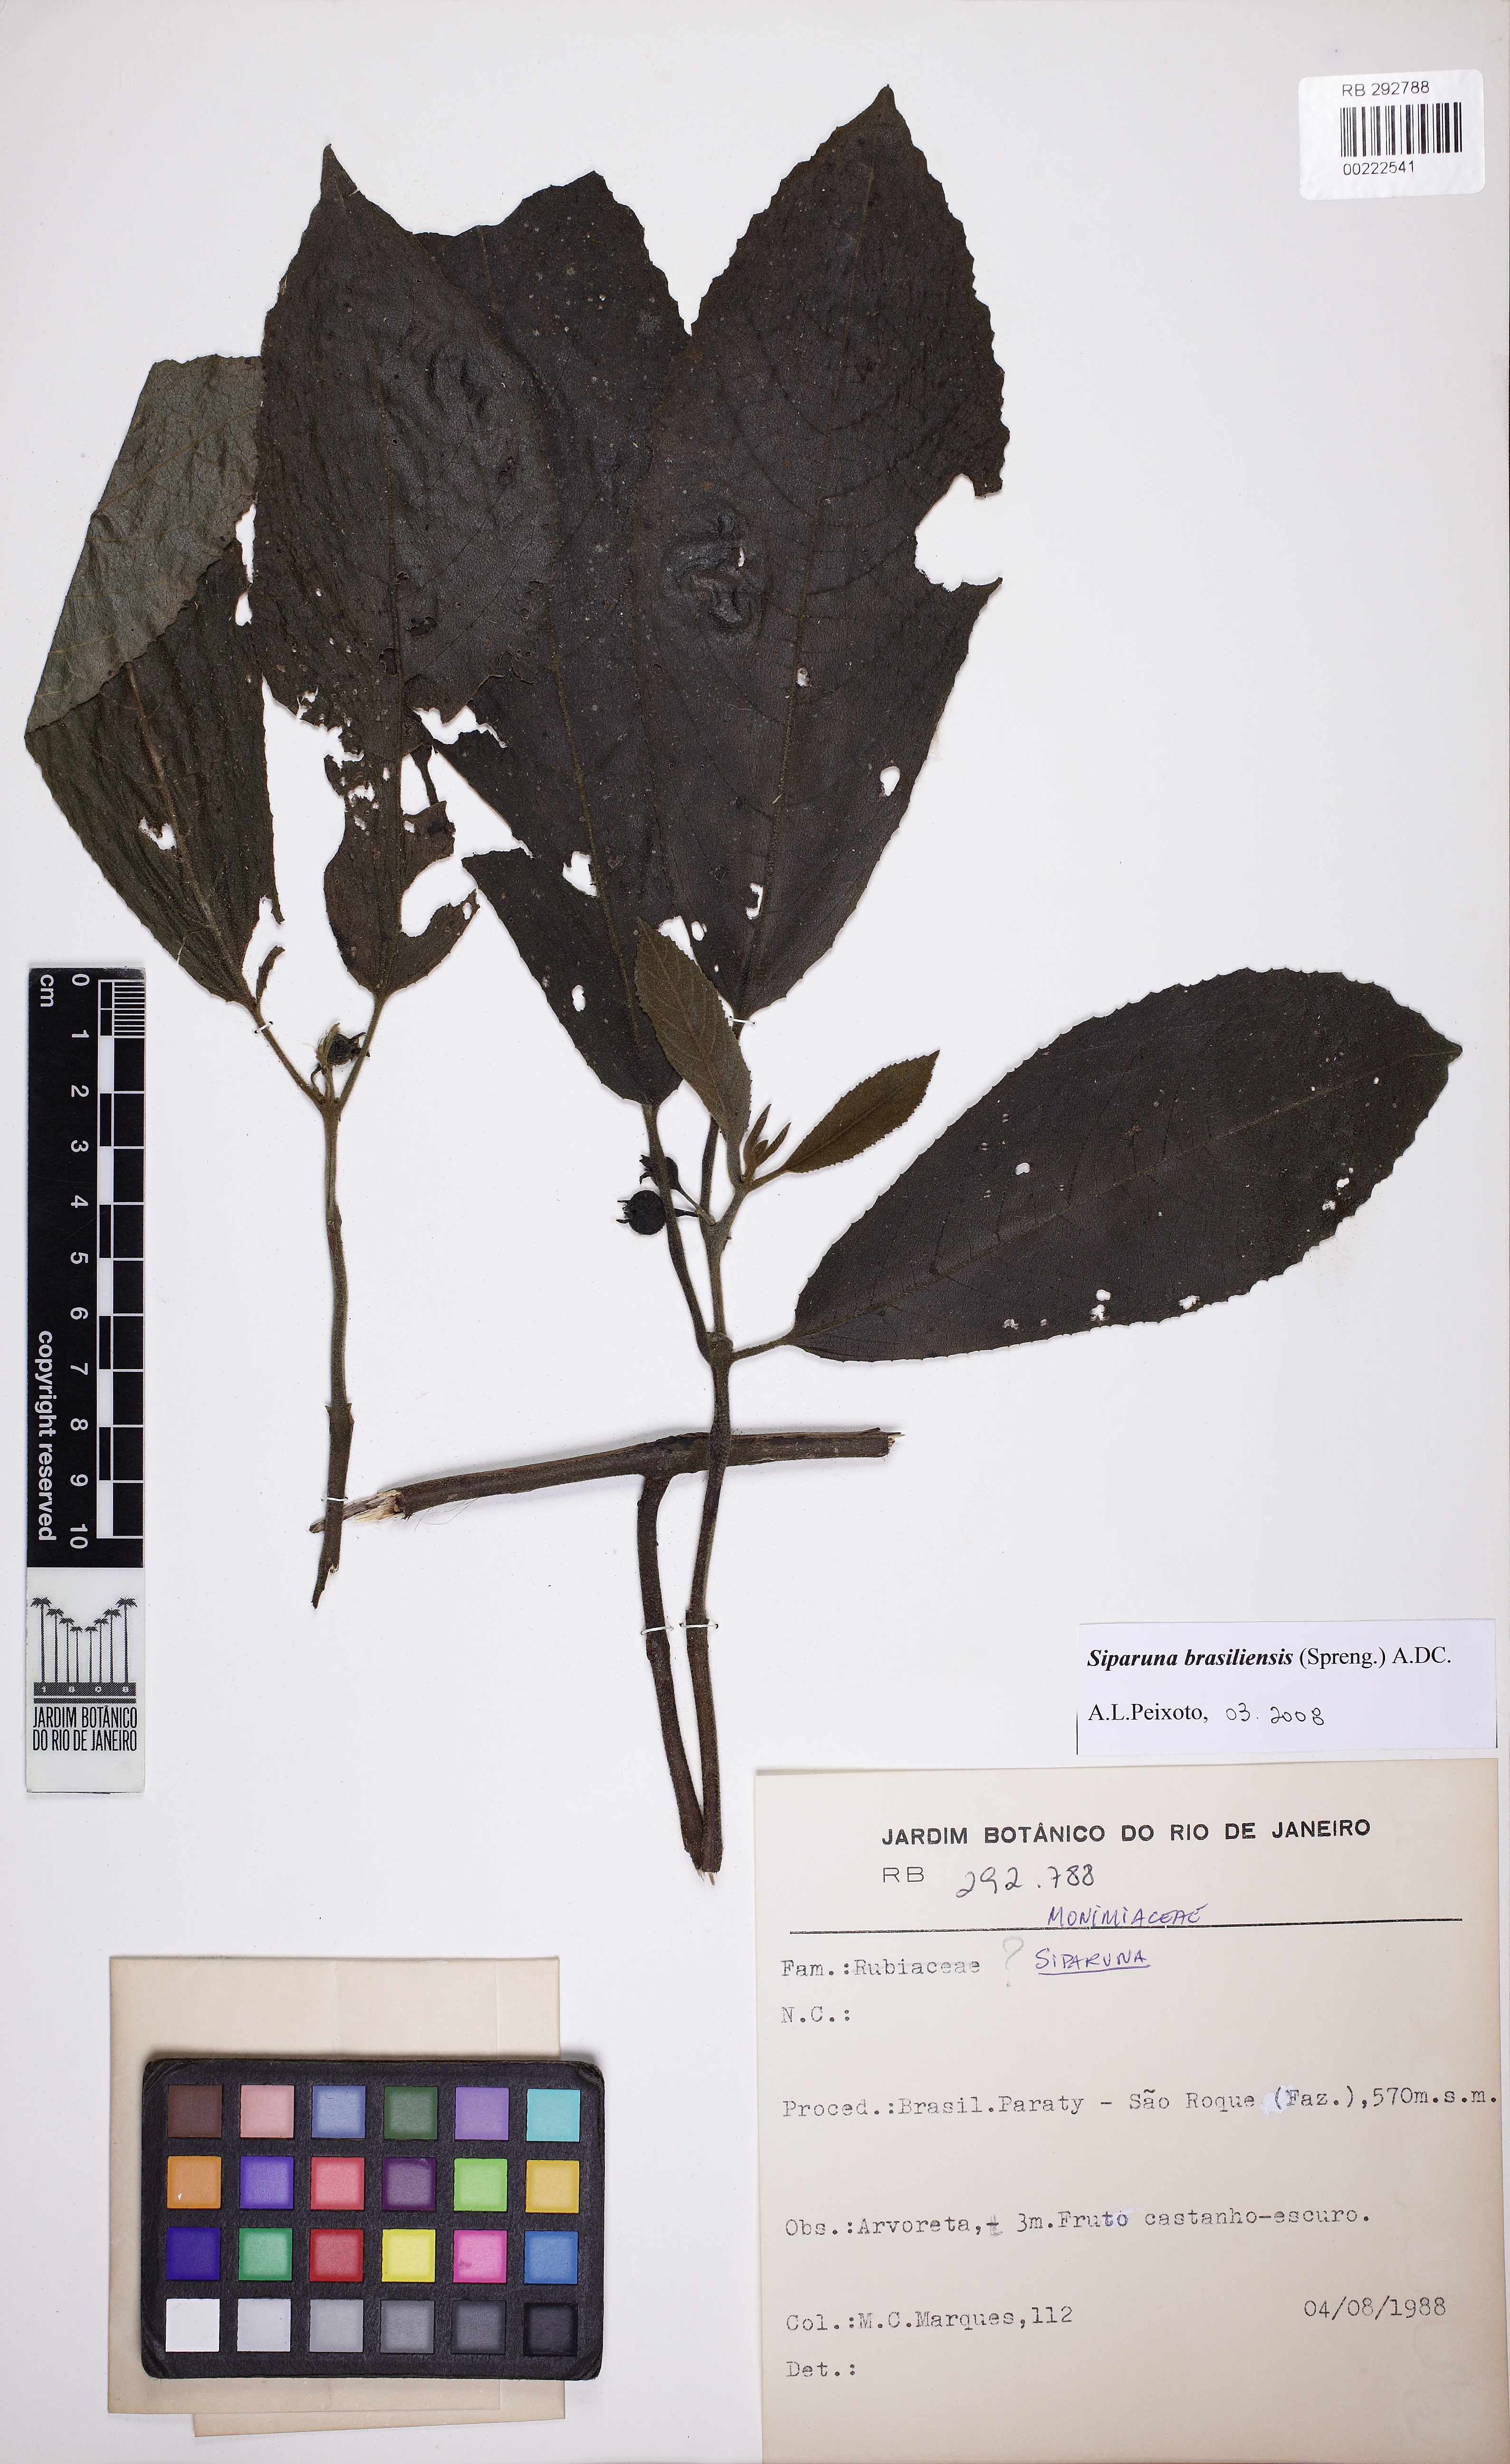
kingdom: Plantae
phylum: Tracheophyta
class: Magnoliopsida
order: Laurales
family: Siparunaceae
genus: Siparuna
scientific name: Siparuna brasiliensis
